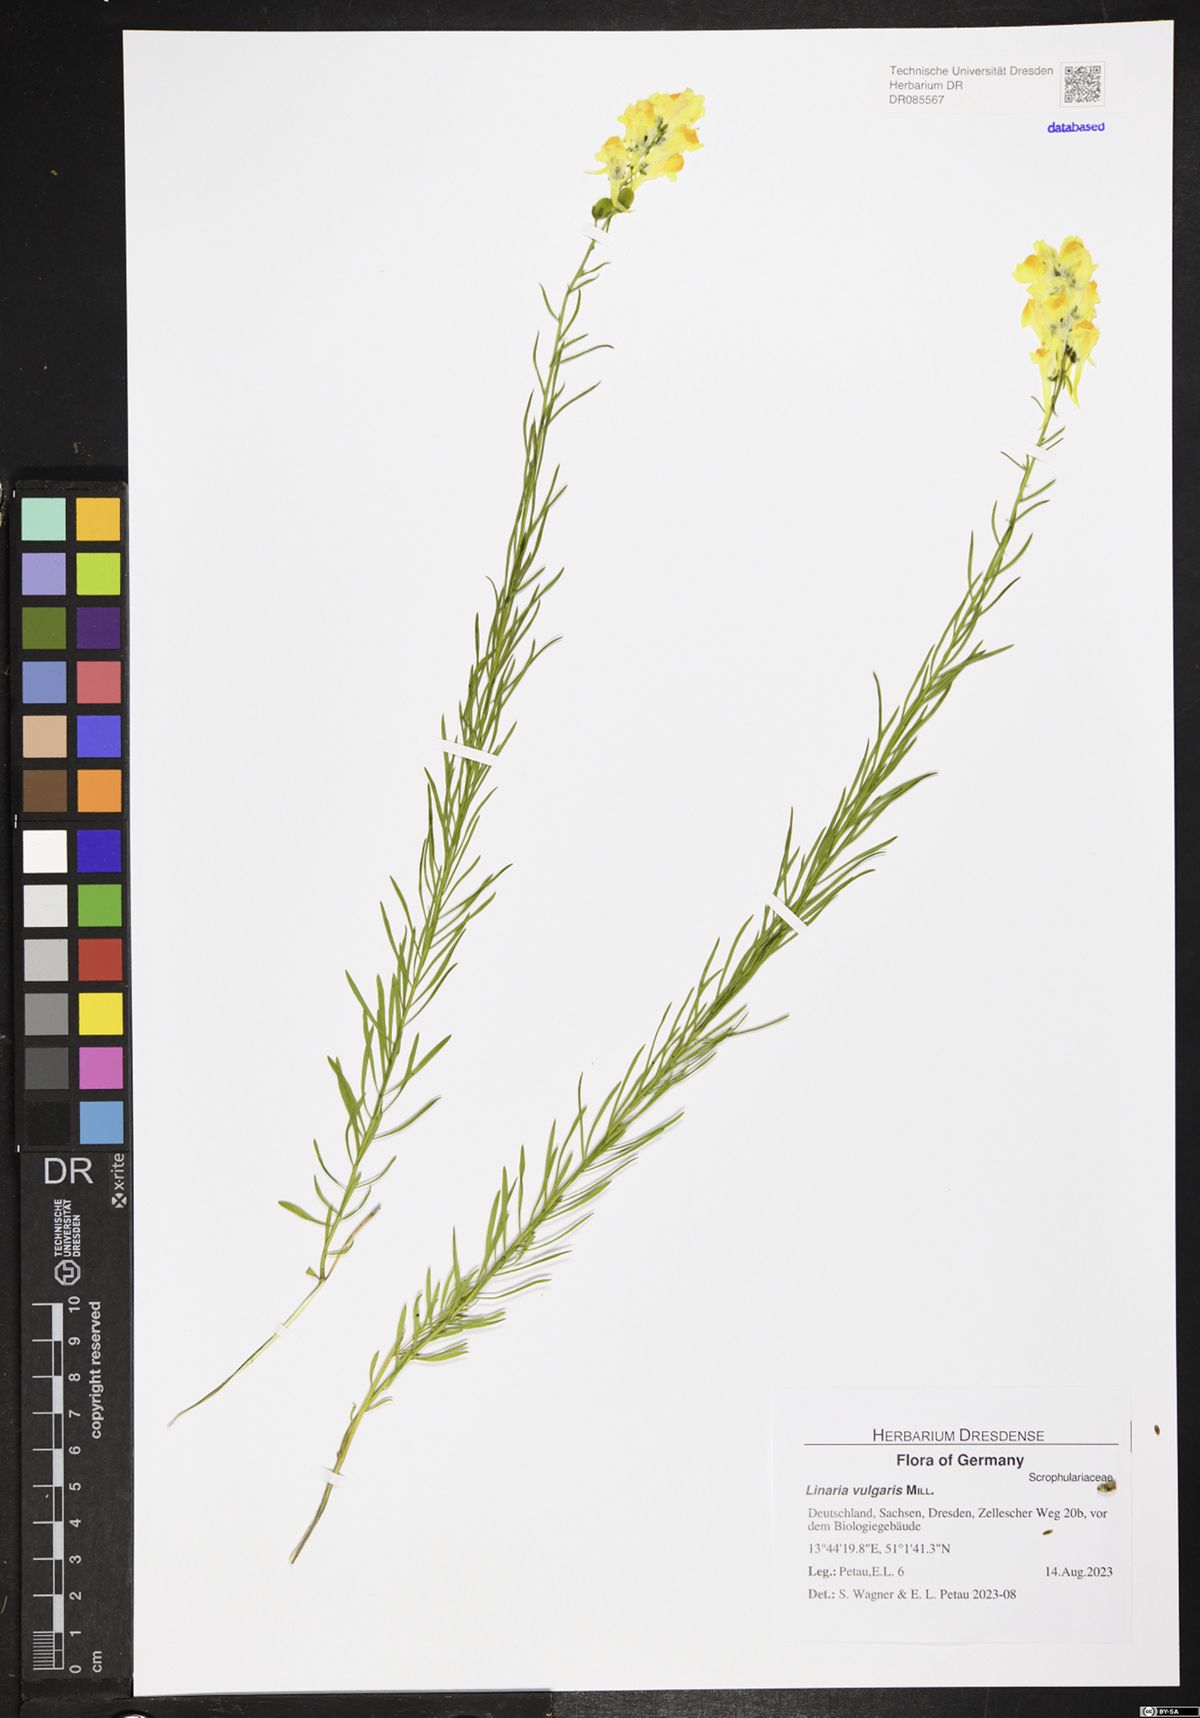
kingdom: Plantae
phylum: Tracheophyta
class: Magnoliopsida
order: Lamiales
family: Plantaginaceae
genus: Linaria
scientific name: Linaria vulgaris
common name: Butter and eggs
